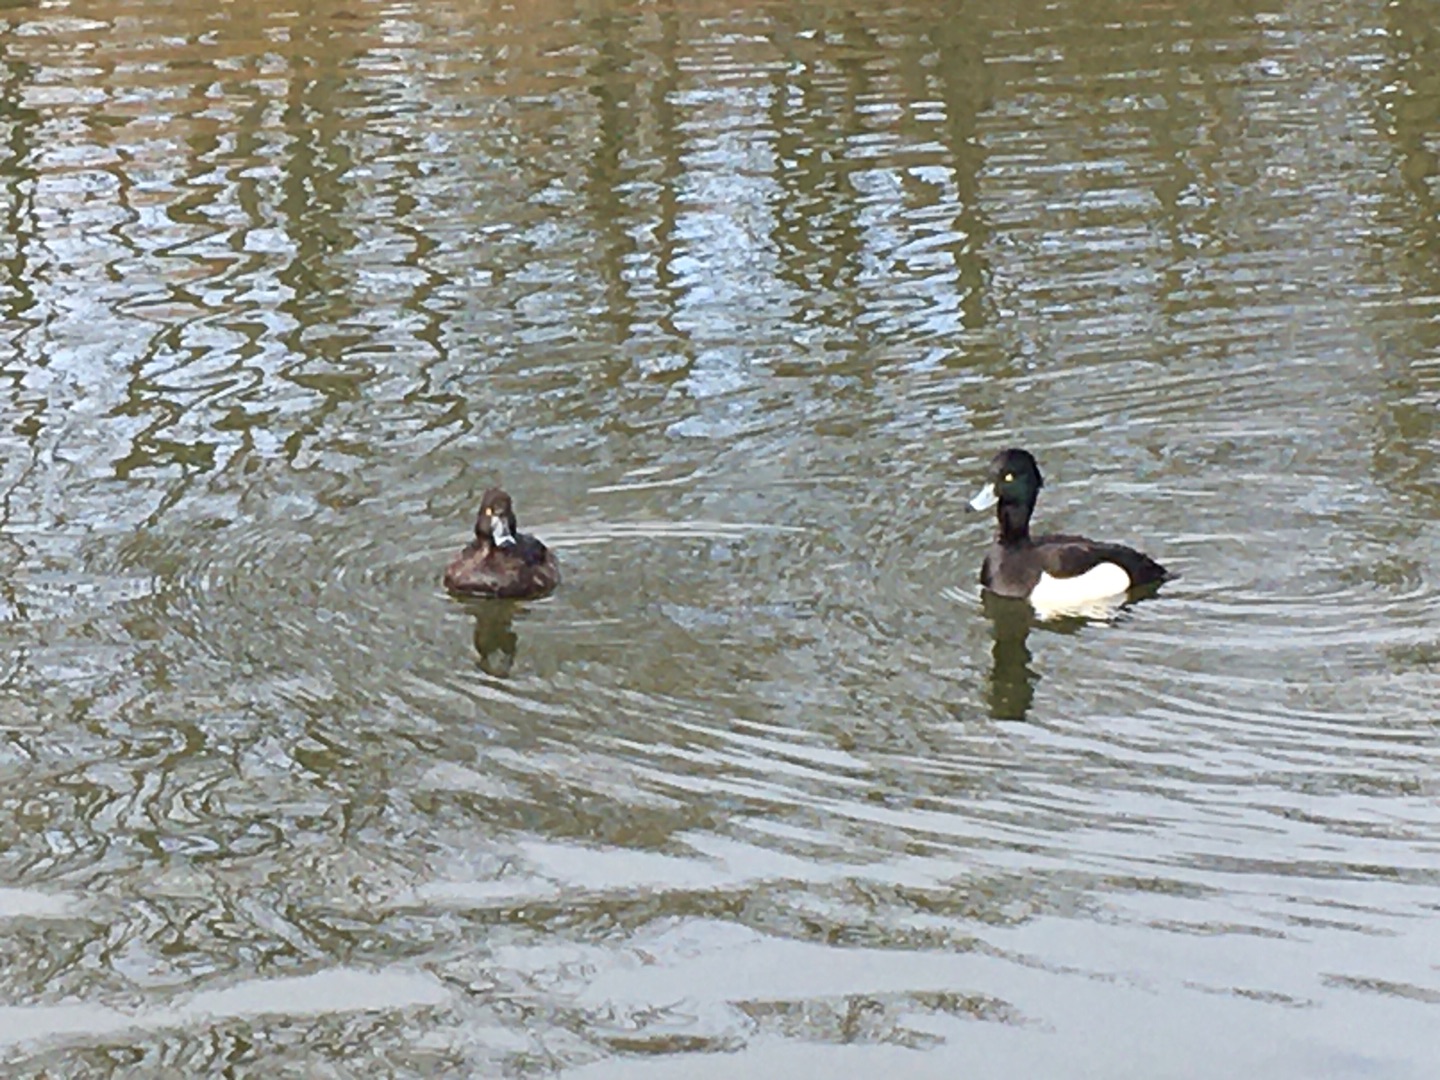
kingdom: Animalia
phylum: Chordata
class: Aves
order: Anseriformes
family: Anatidae
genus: Aythya
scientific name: Aythya fuligula
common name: Troldand
